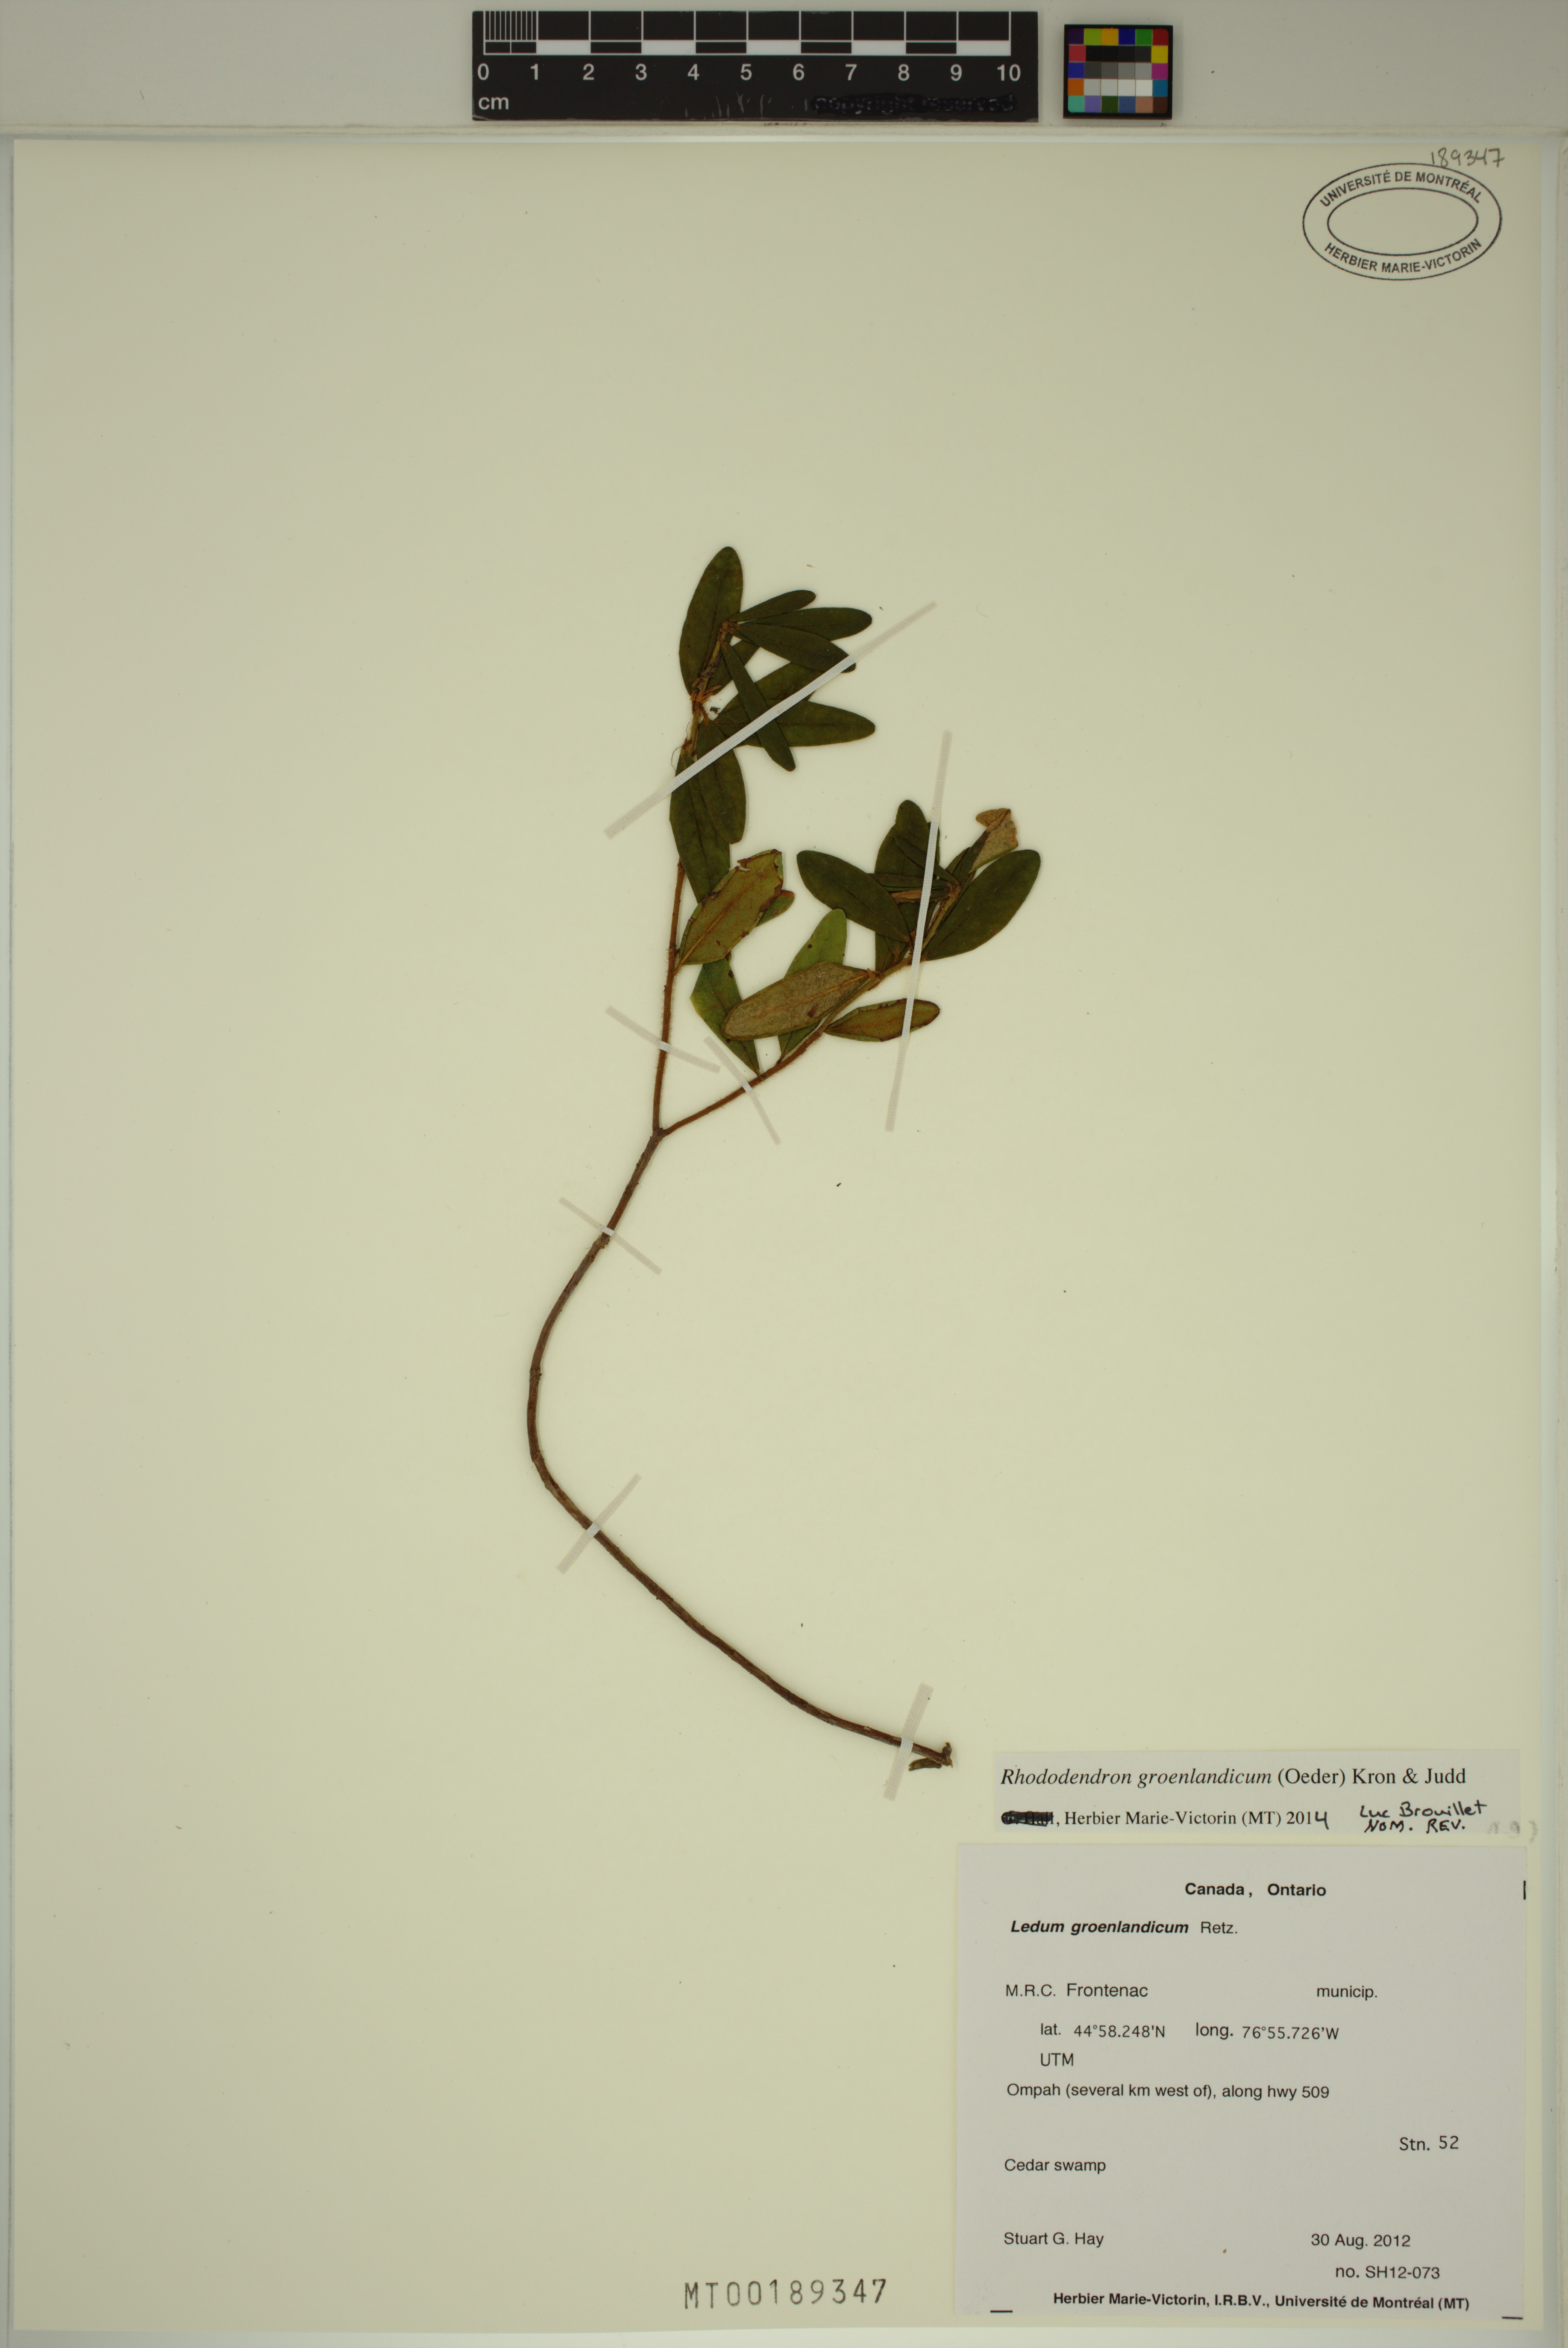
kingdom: Plantae
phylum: Tracheophyta
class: Magnoliopsida
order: Ericales
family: Ericaceae
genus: Rhododendron
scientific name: Rhododendron groenlandicum
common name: Bog labrador tea
